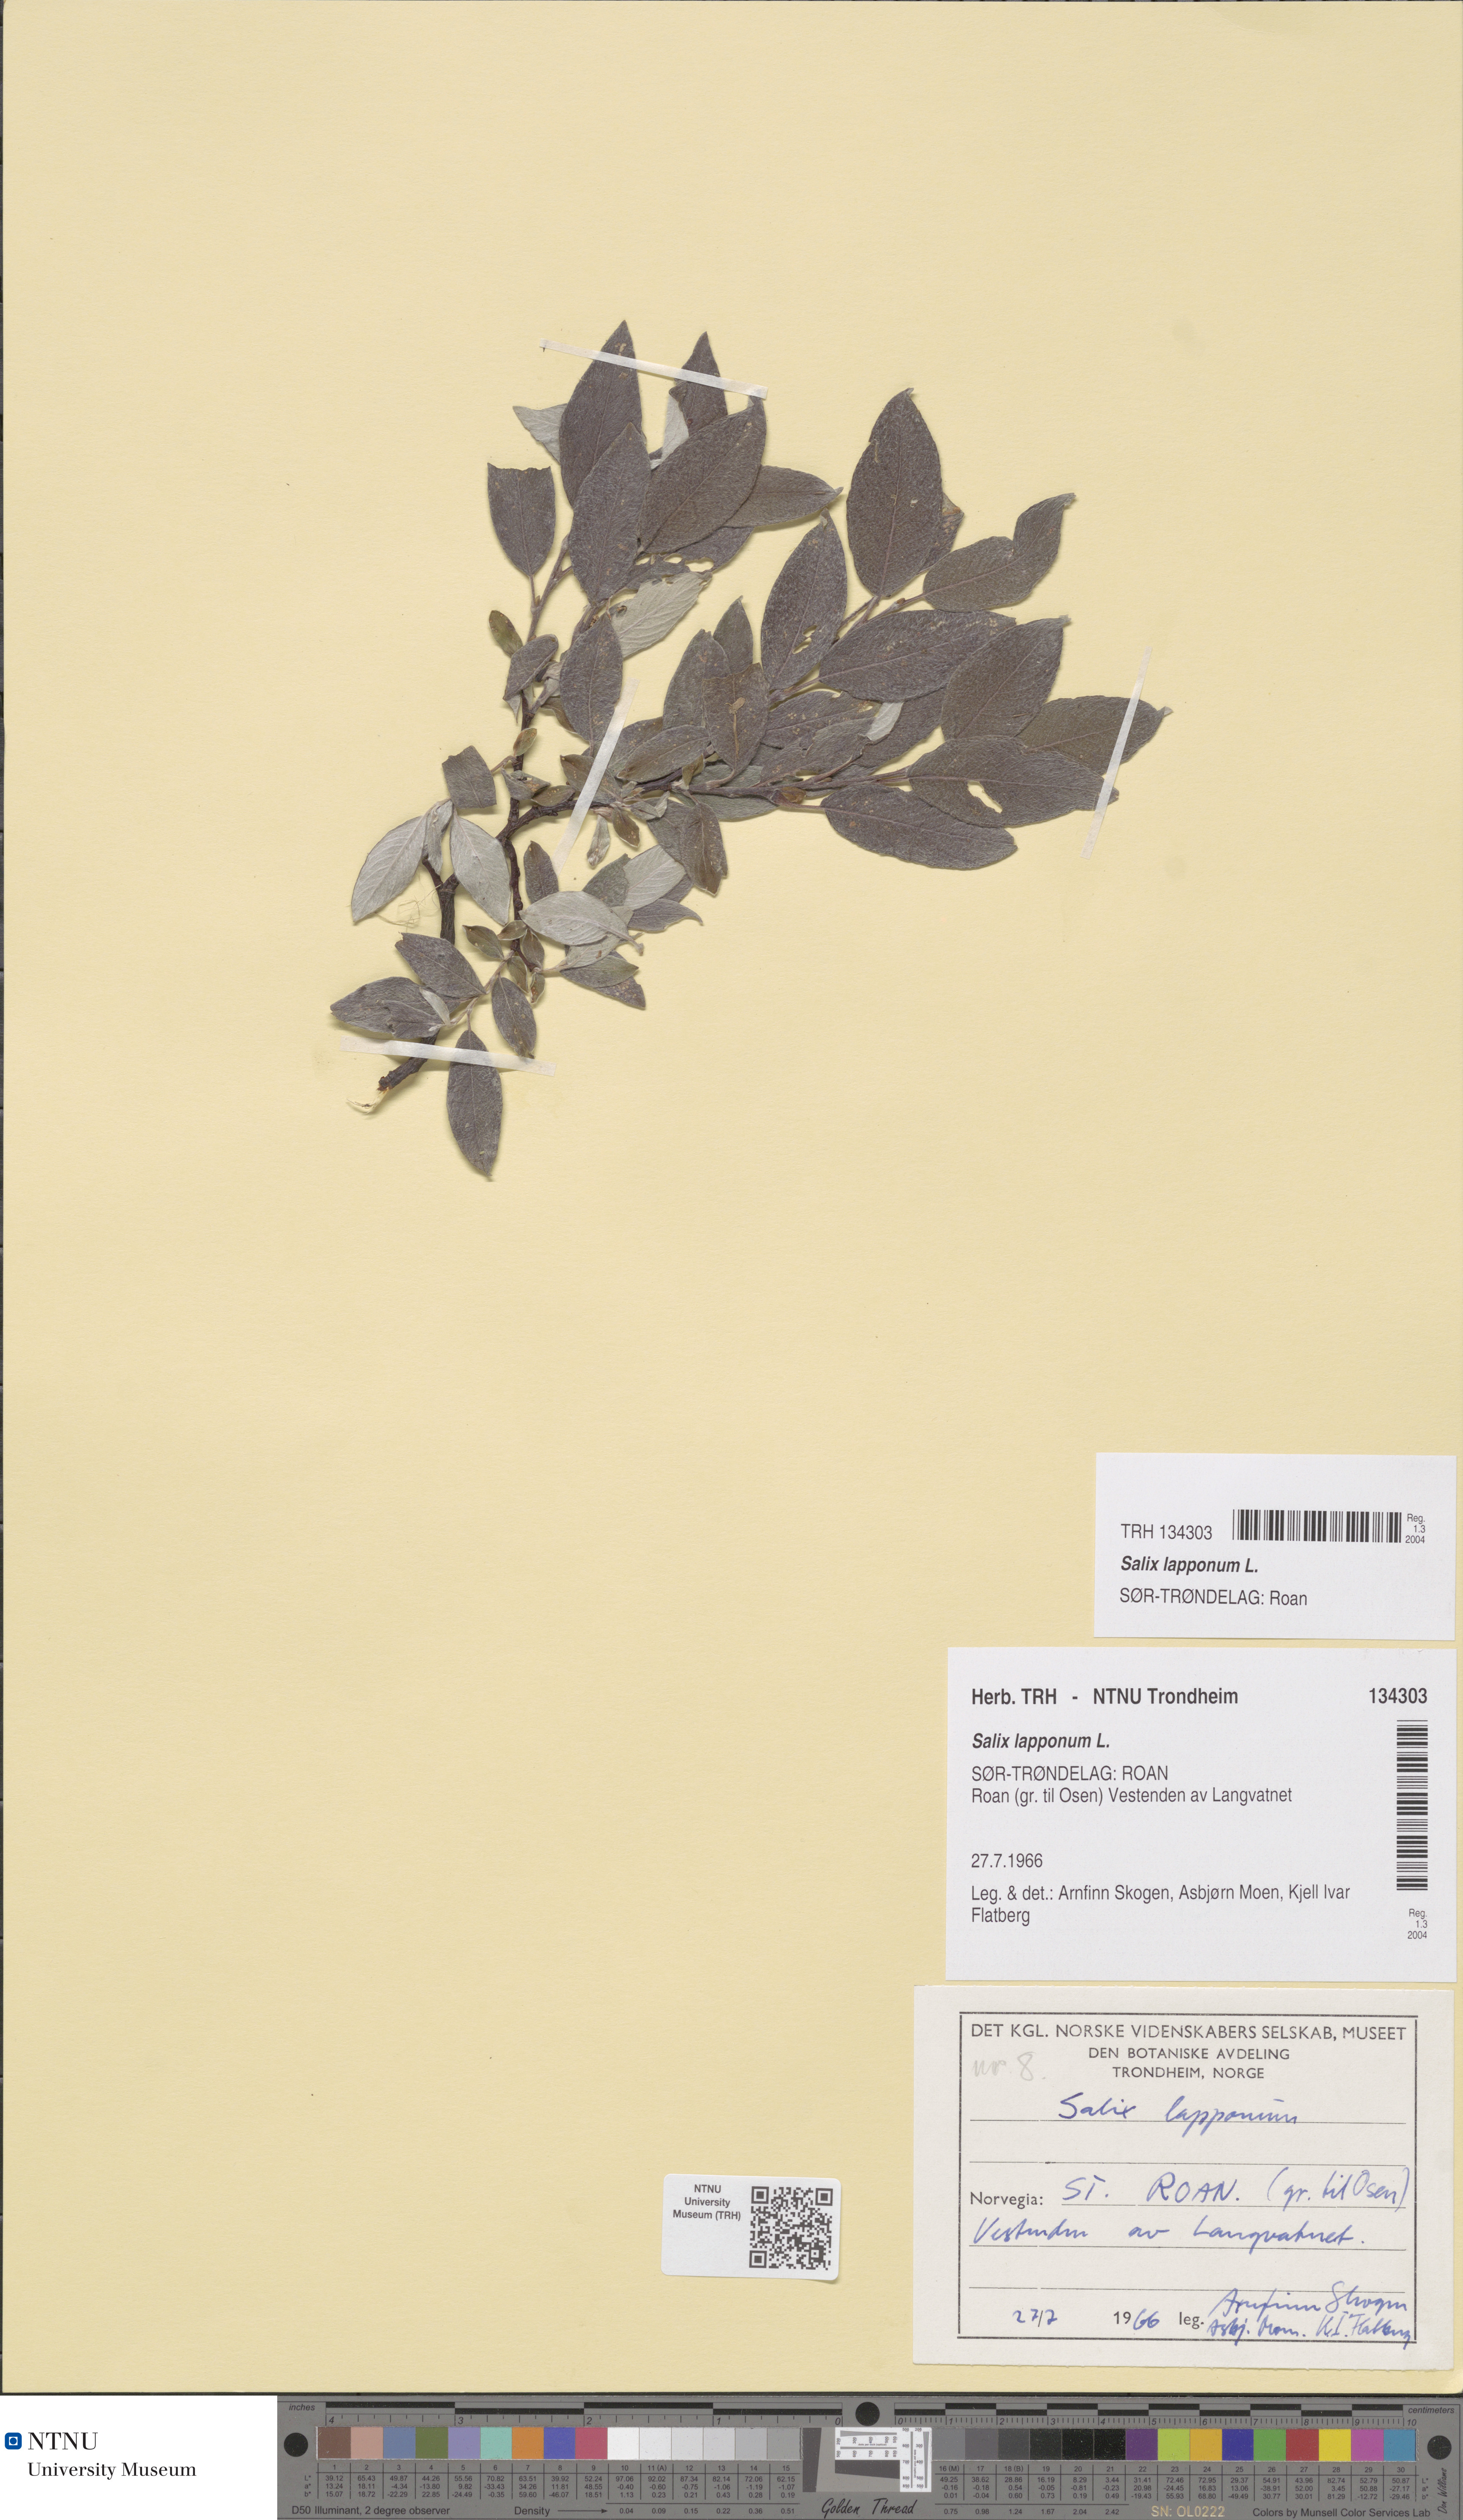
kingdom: Plantae
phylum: Tracheophyta
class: Magnoliopsida
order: Malpighiales
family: Salicaceae
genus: Salix
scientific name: Salix lapponum
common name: Downy willow
